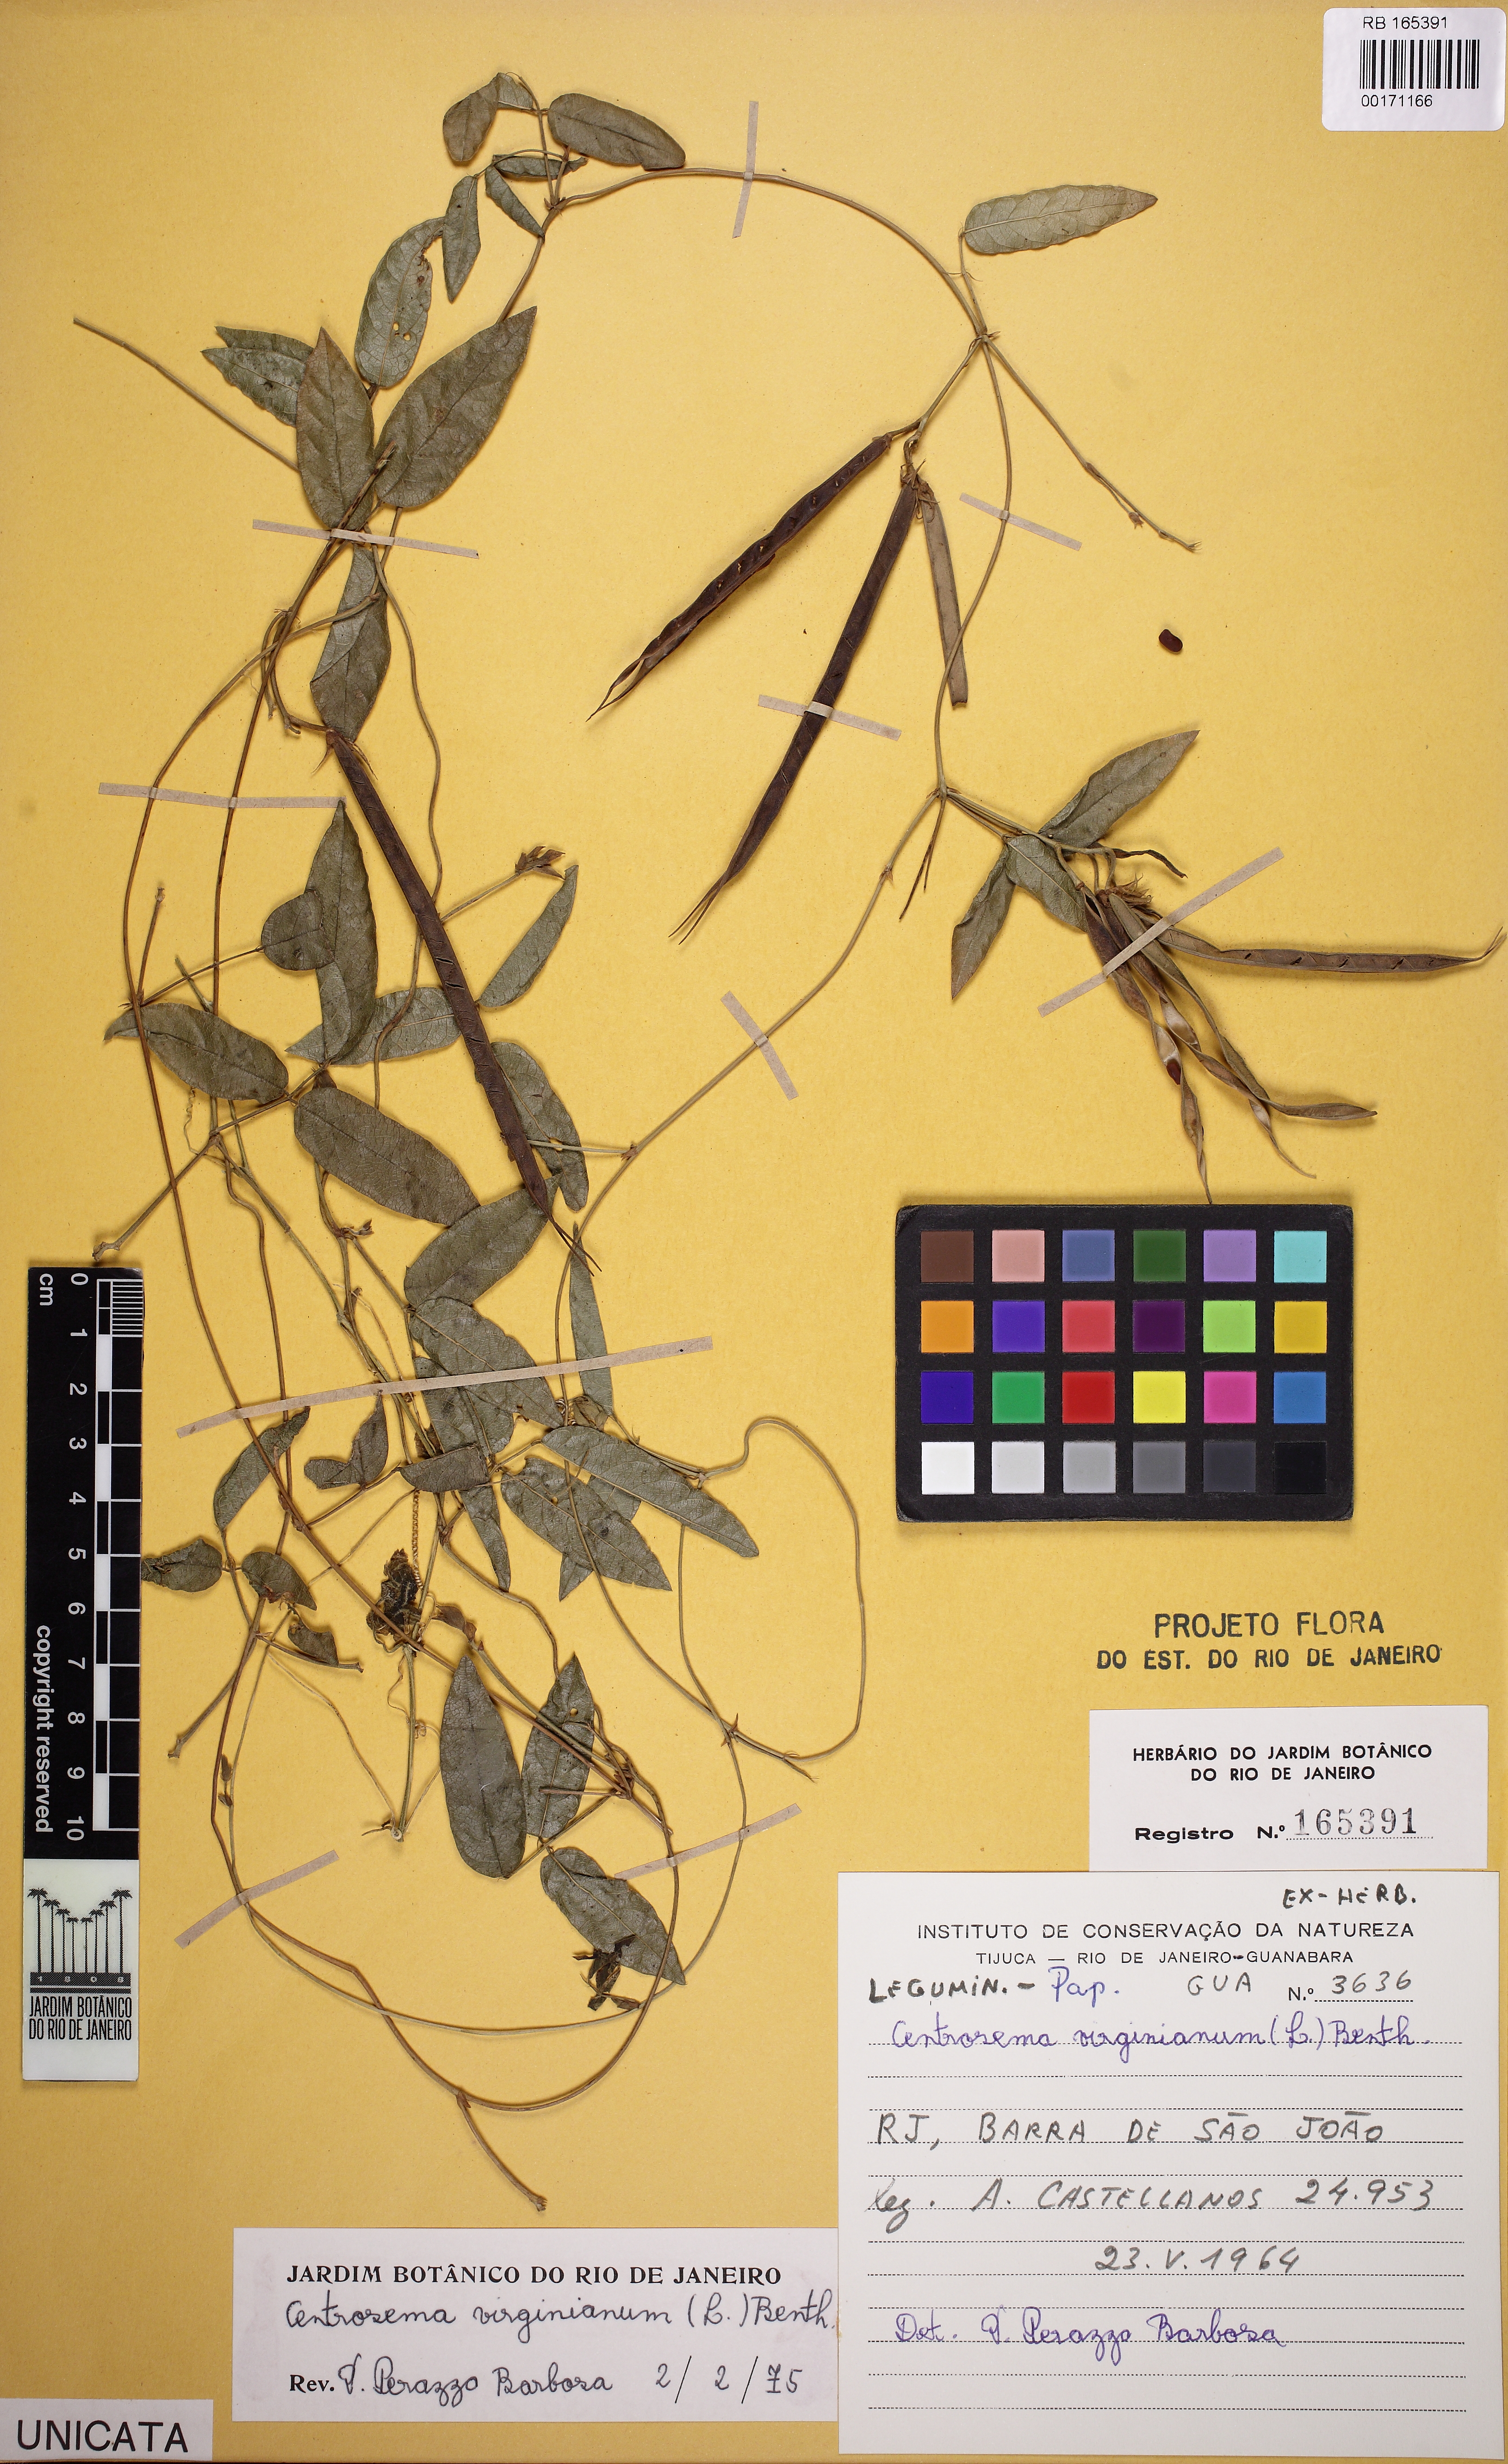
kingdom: Plantae
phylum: Tracheophyta
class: Magnoliopsida
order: Fabales
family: Fabaceae
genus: Centrosema
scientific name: Centrosema virginianum
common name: Butterfly-pea
